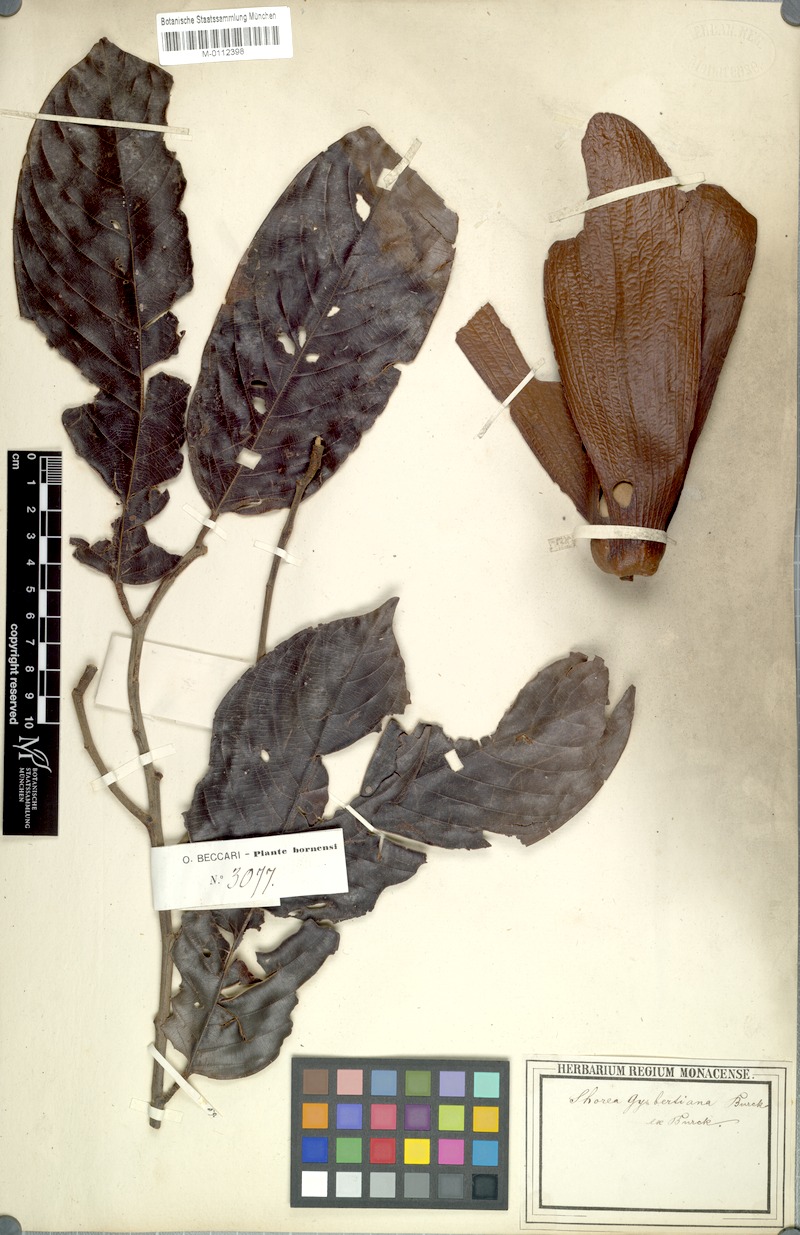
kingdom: Plantae
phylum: Tracheophyta
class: Magnoliopsida
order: Malvales
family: Dipterocarpaceae
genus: Shorea
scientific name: Shorea stenoptera
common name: Light red meranti
